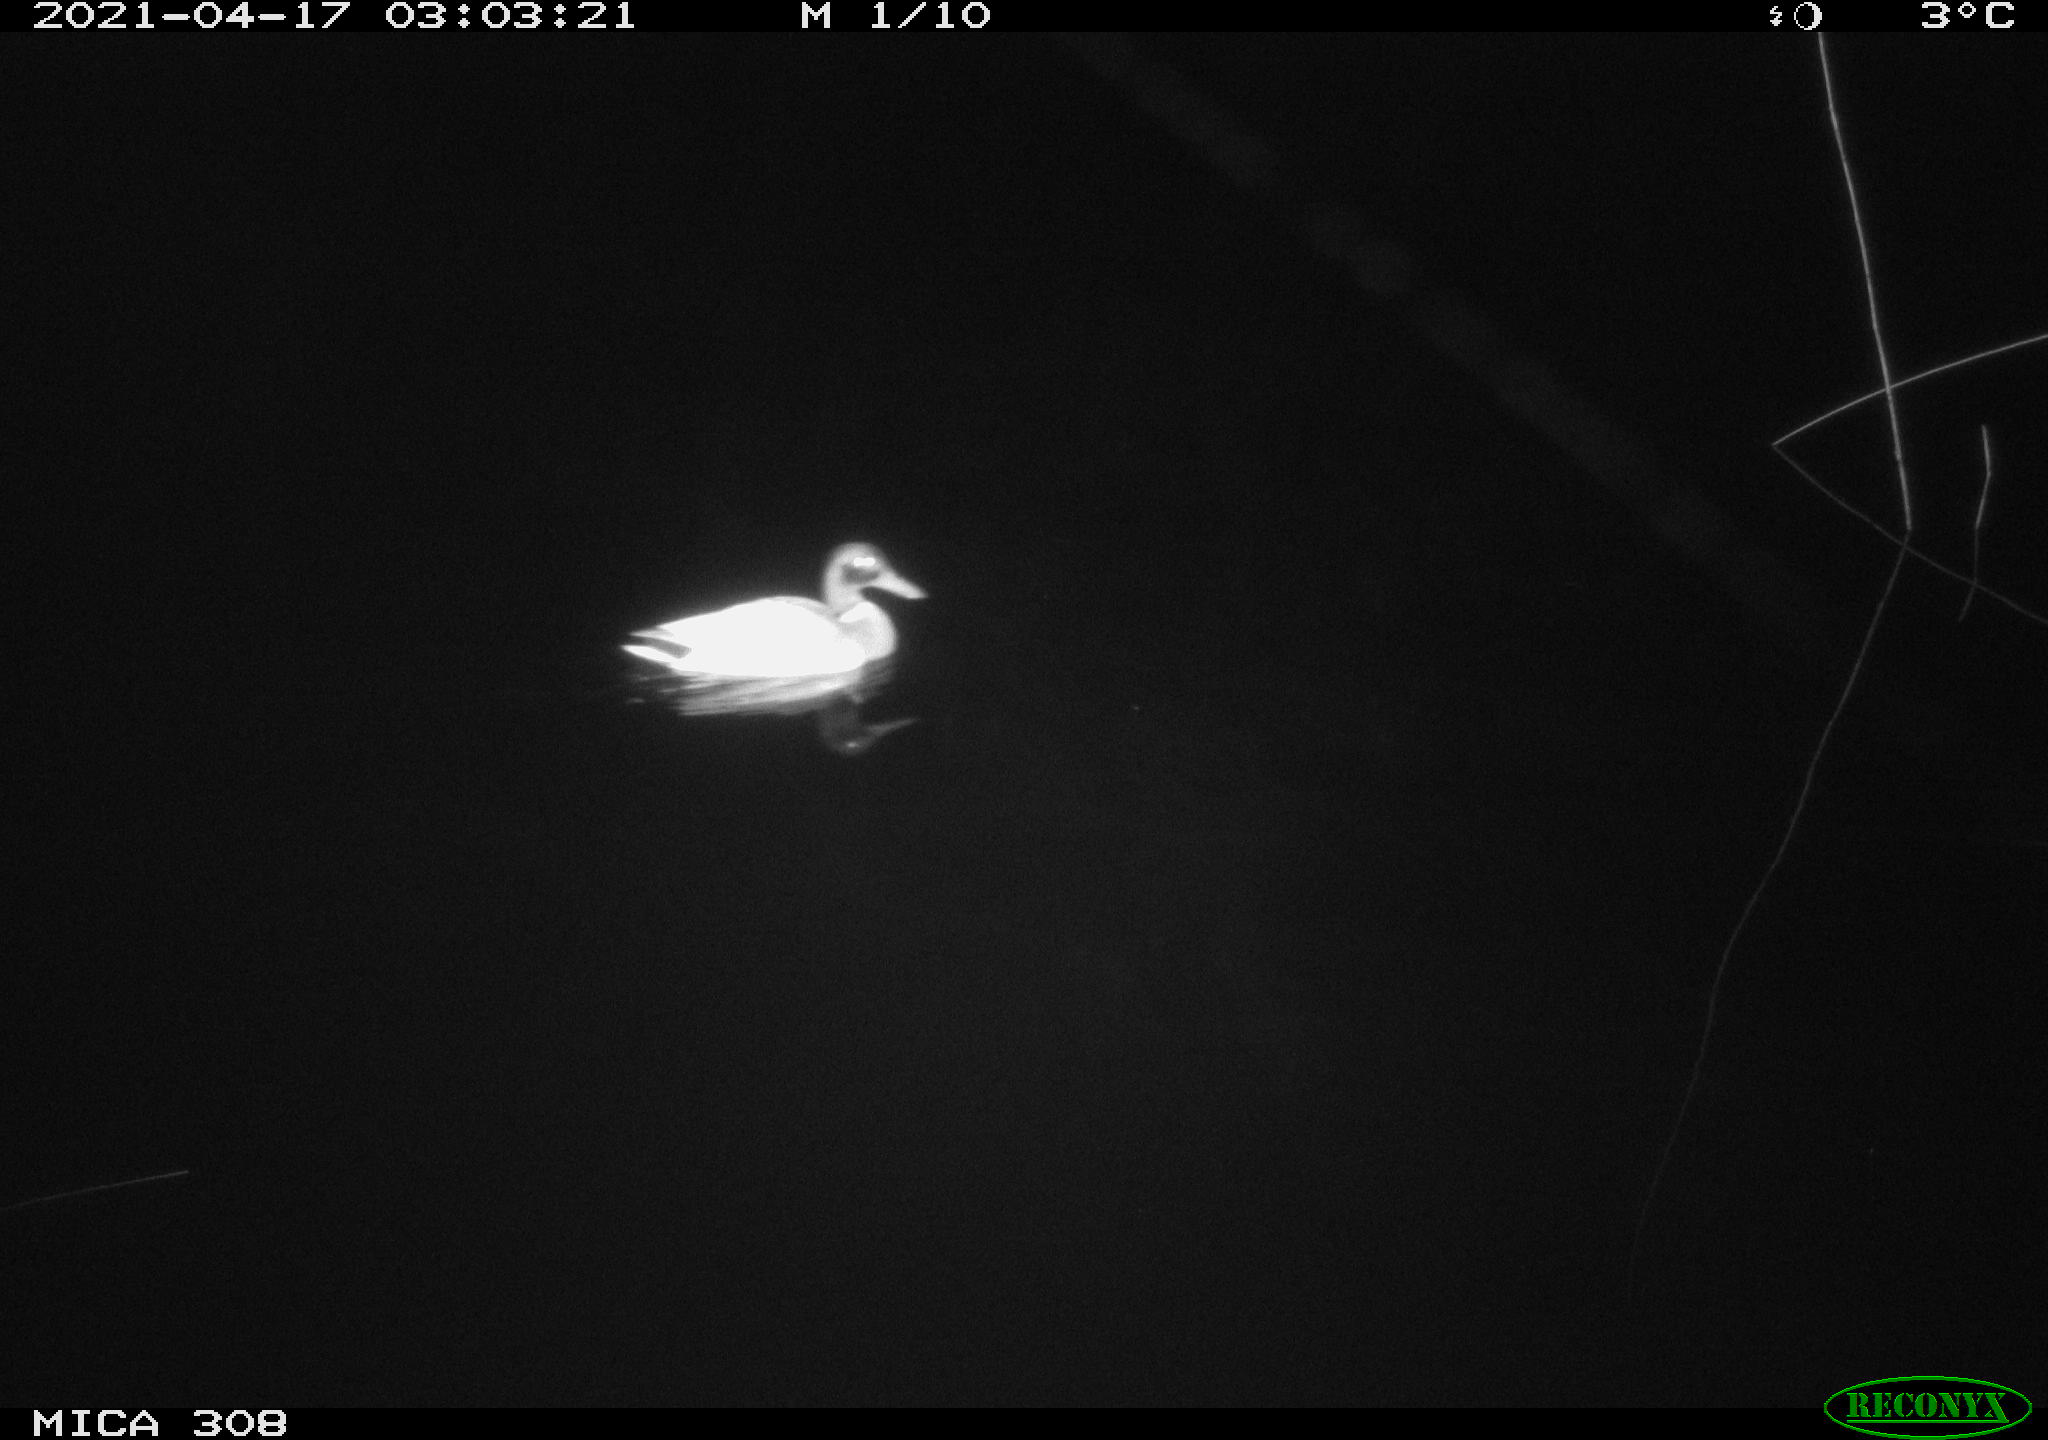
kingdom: Animalia
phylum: Chordata
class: Aves
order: Anseriformes
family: Anatidae
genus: Anas
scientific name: Anas platyrhynchos
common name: Mallard
